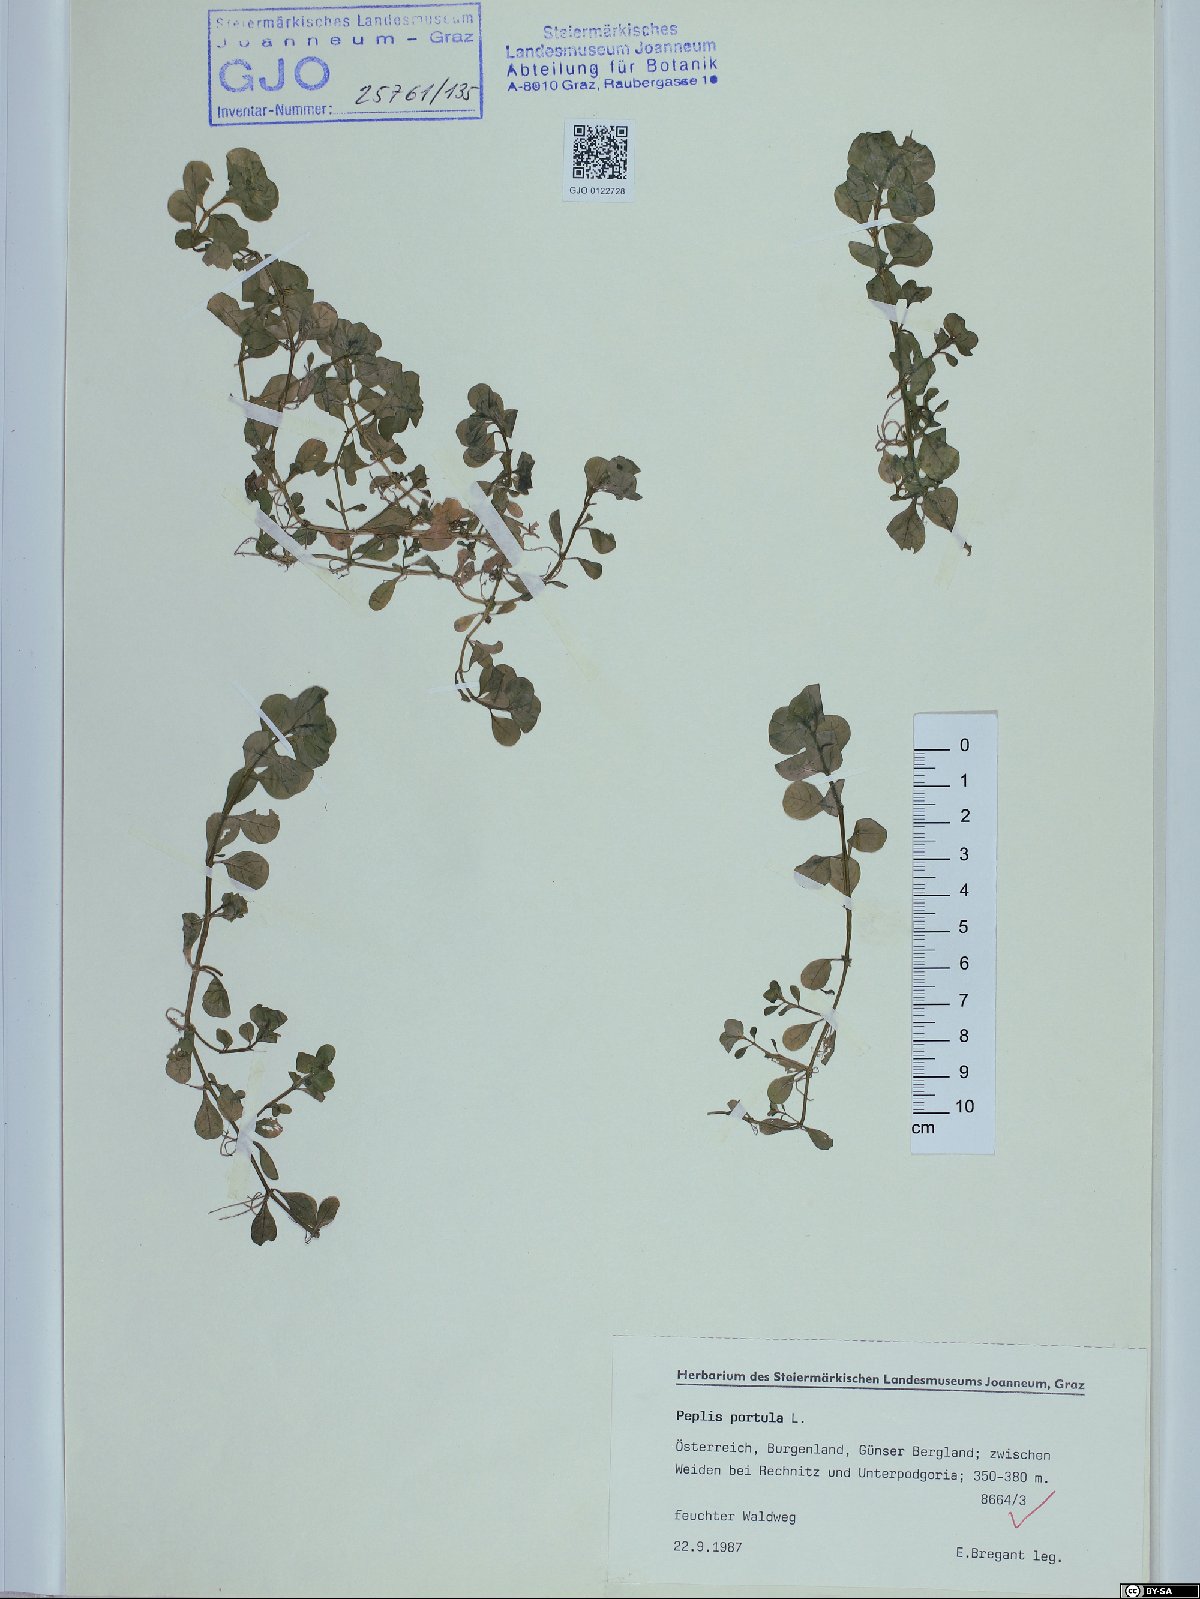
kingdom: Plantae
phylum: Tracheophyta
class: Magnoliopsida
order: Myrtales
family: Lythraceae
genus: Lythrum
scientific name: Lythrum portula
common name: Water purslane
